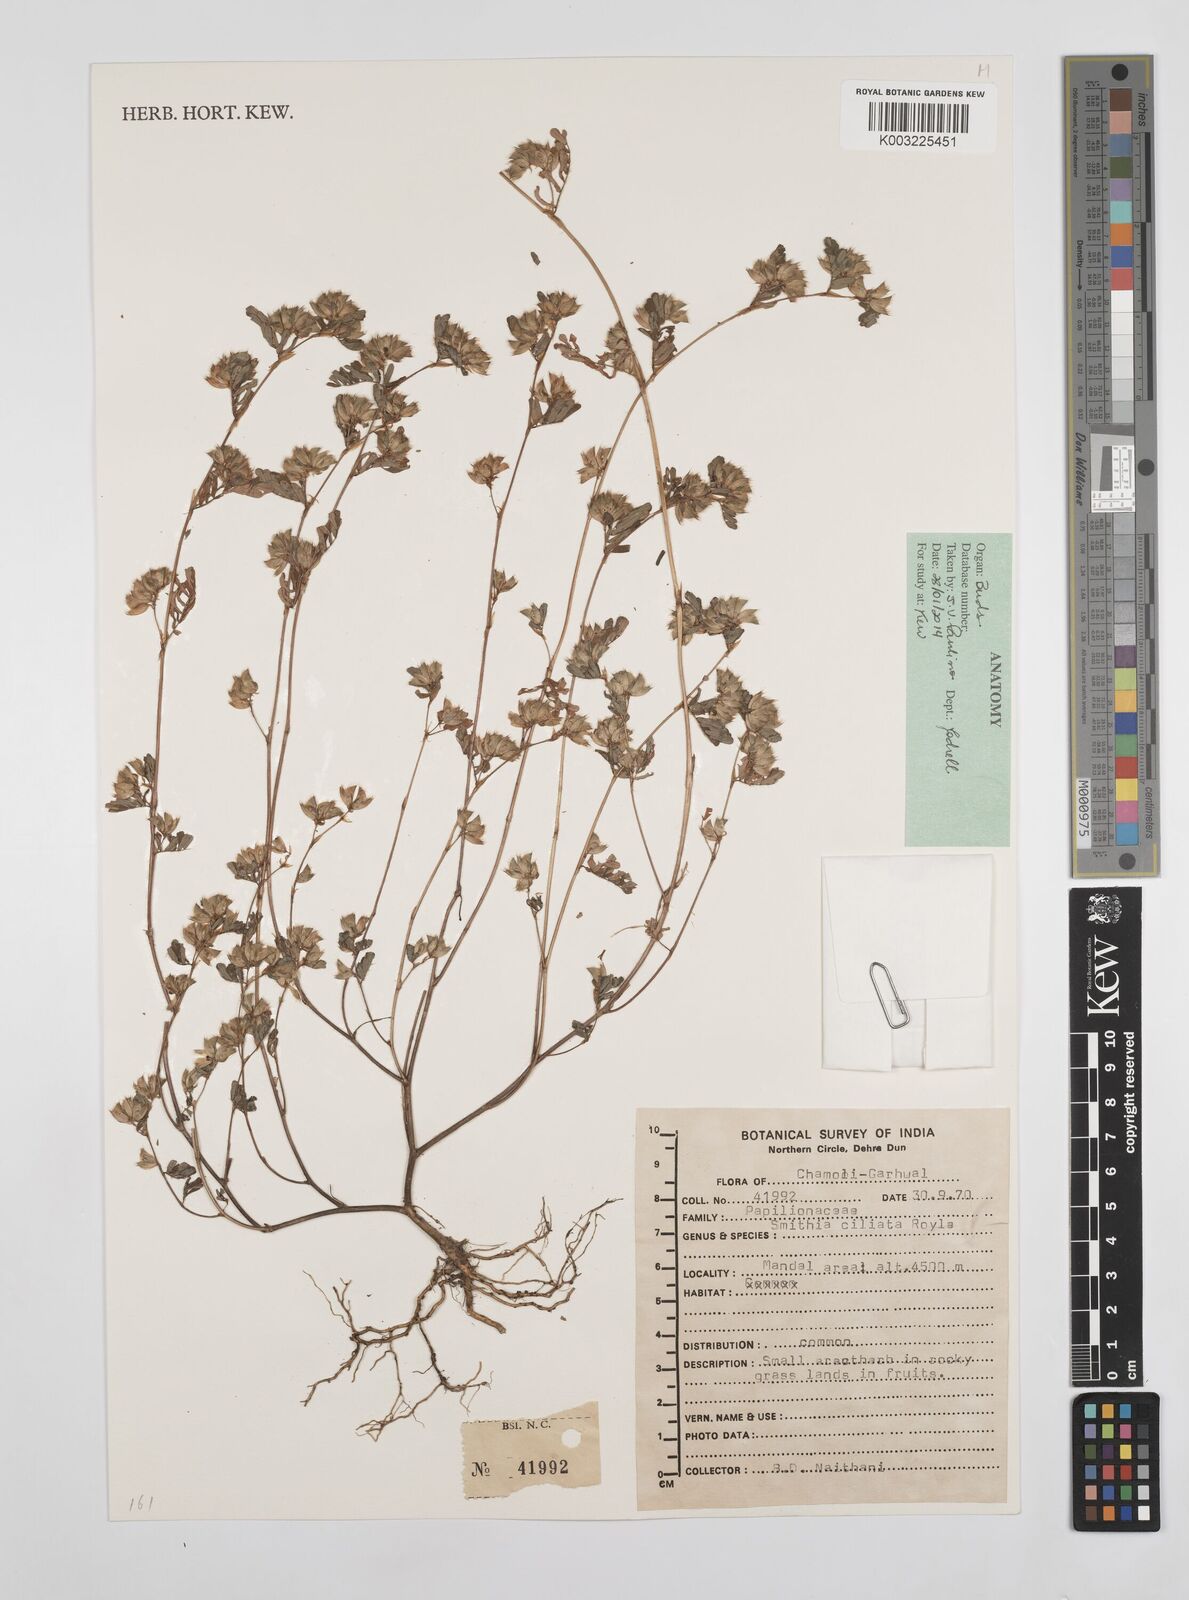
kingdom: Plantae
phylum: Tracheophyta
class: Magnoliopsida
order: Fabales
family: Fabaceae
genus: Smithia
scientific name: Smithia ciliata
